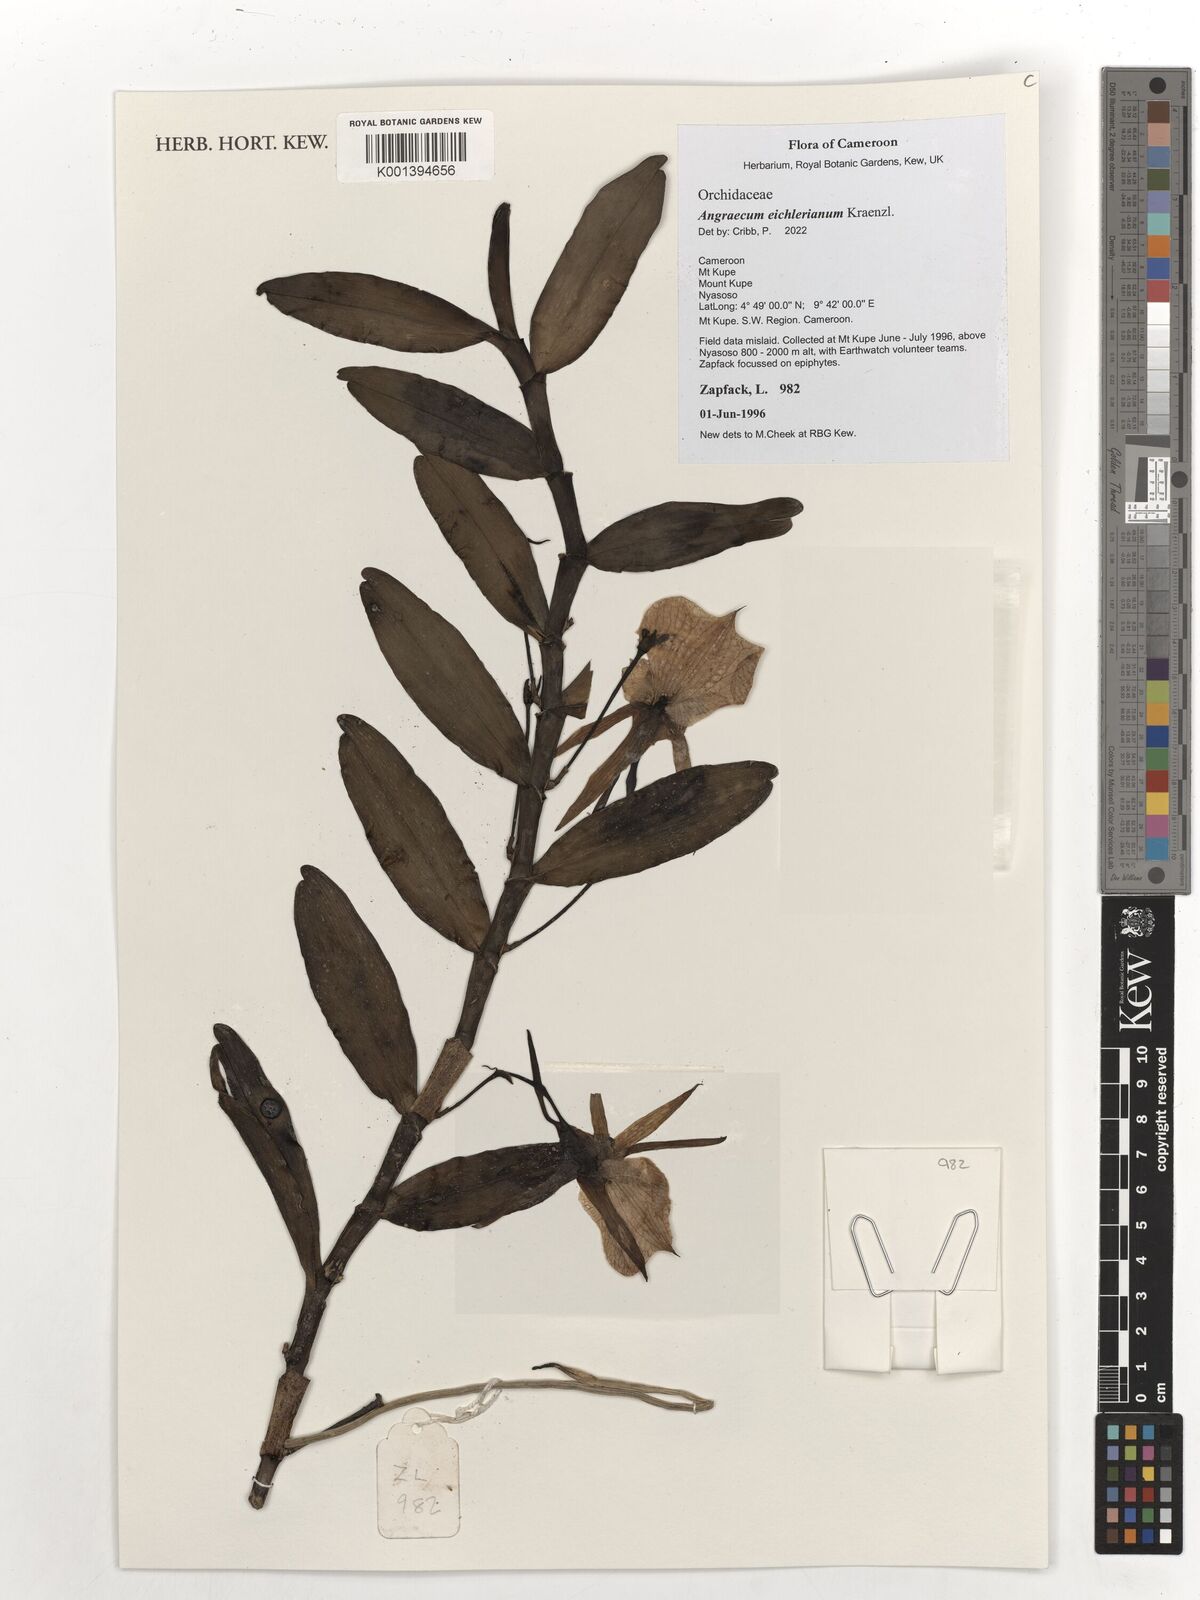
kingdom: Plantae
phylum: Tracheophyta
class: Liliopsida
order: Asparagales
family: Orchidaceae
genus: Angraecum
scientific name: Angraecum eichlerianum
